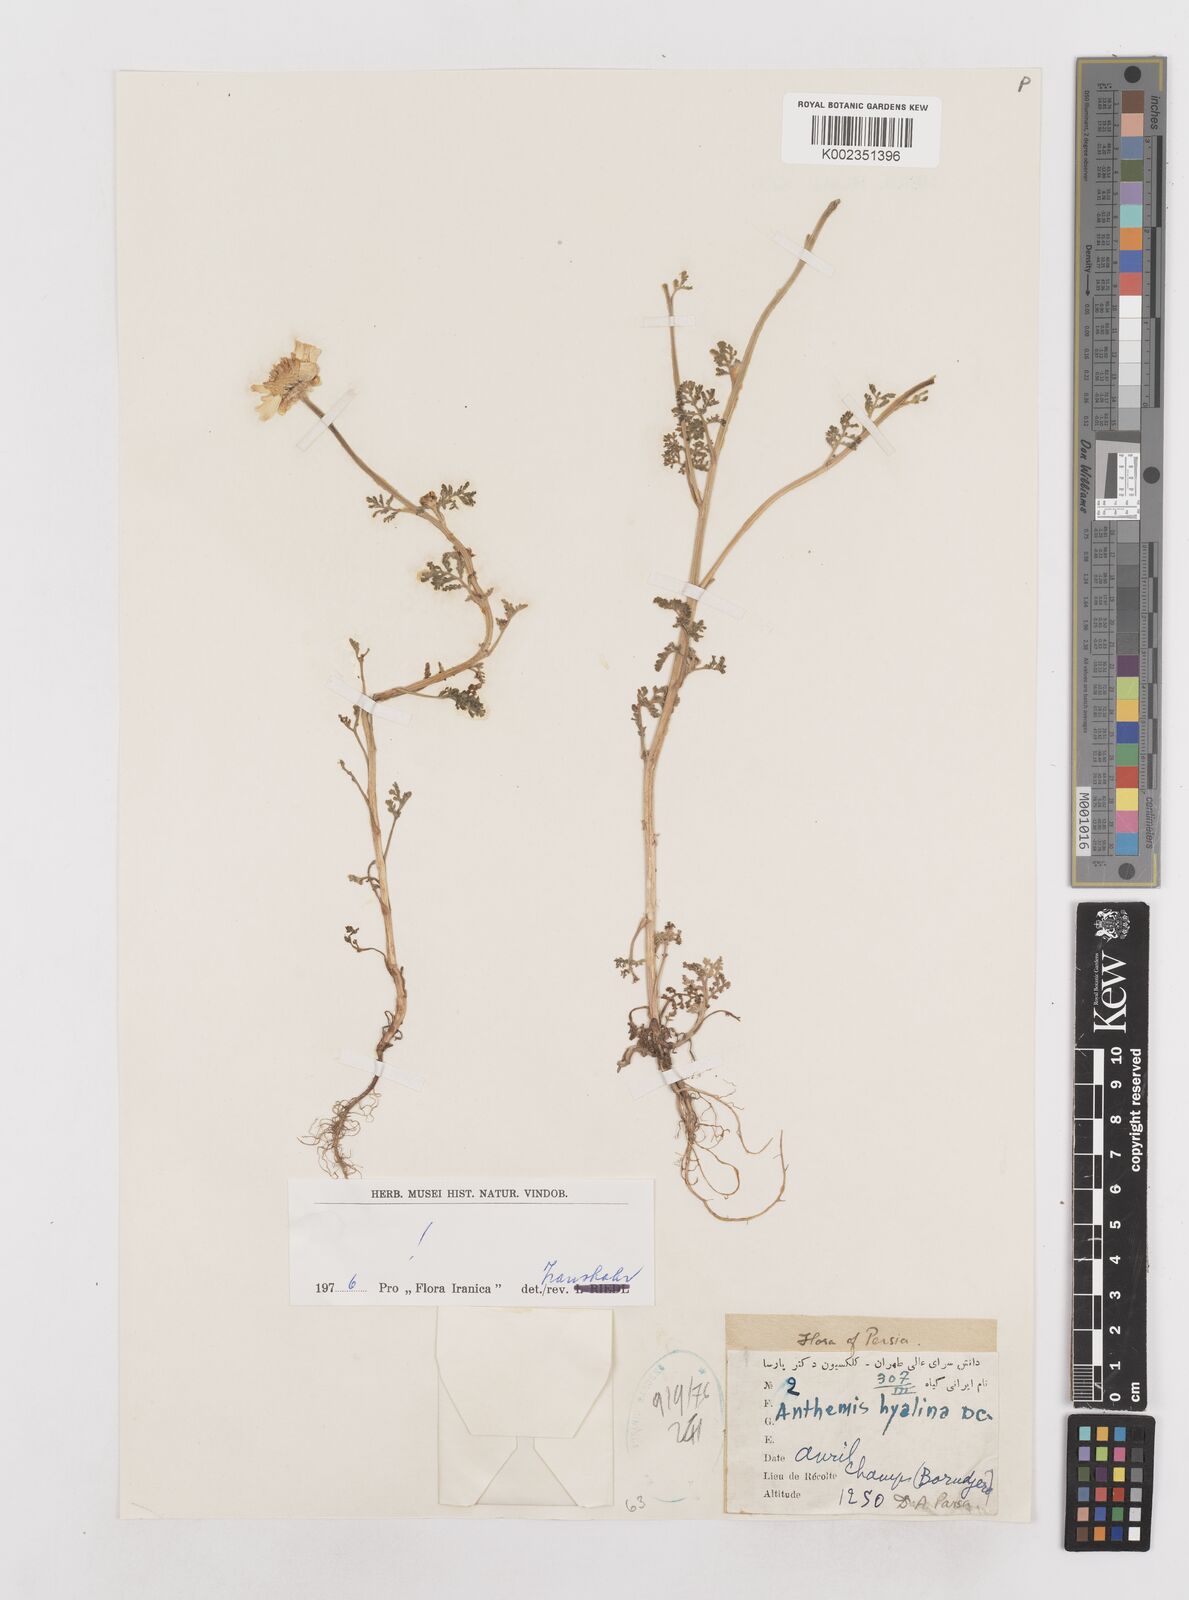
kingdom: Plantae
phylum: Tracheophyta
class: Magnoliopsida
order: Asterales
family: Asteraceae
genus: Anthemis
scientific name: Anthemis hyalina
